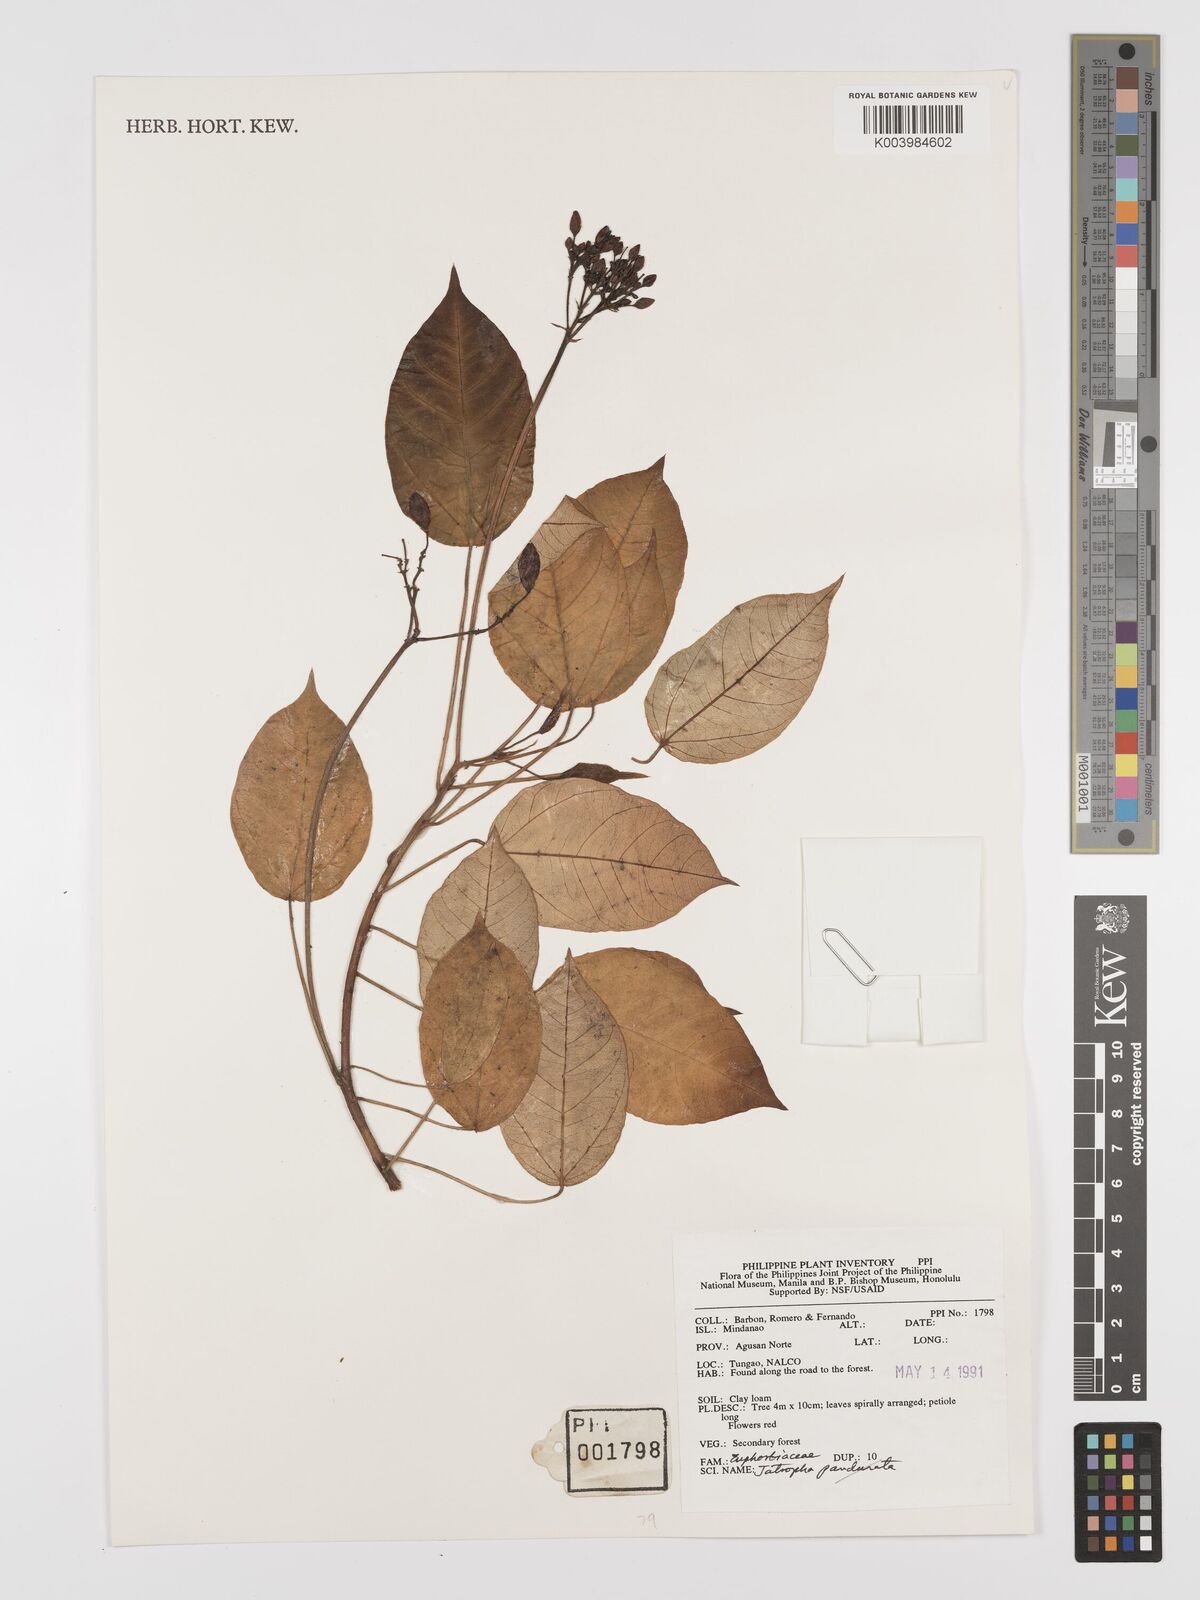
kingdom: Plantae
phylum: Tracheophyta
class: Magnoliopsida
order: Malpighiales
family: Euphorbiaceae
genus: Jatropha
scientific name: Jatropha
